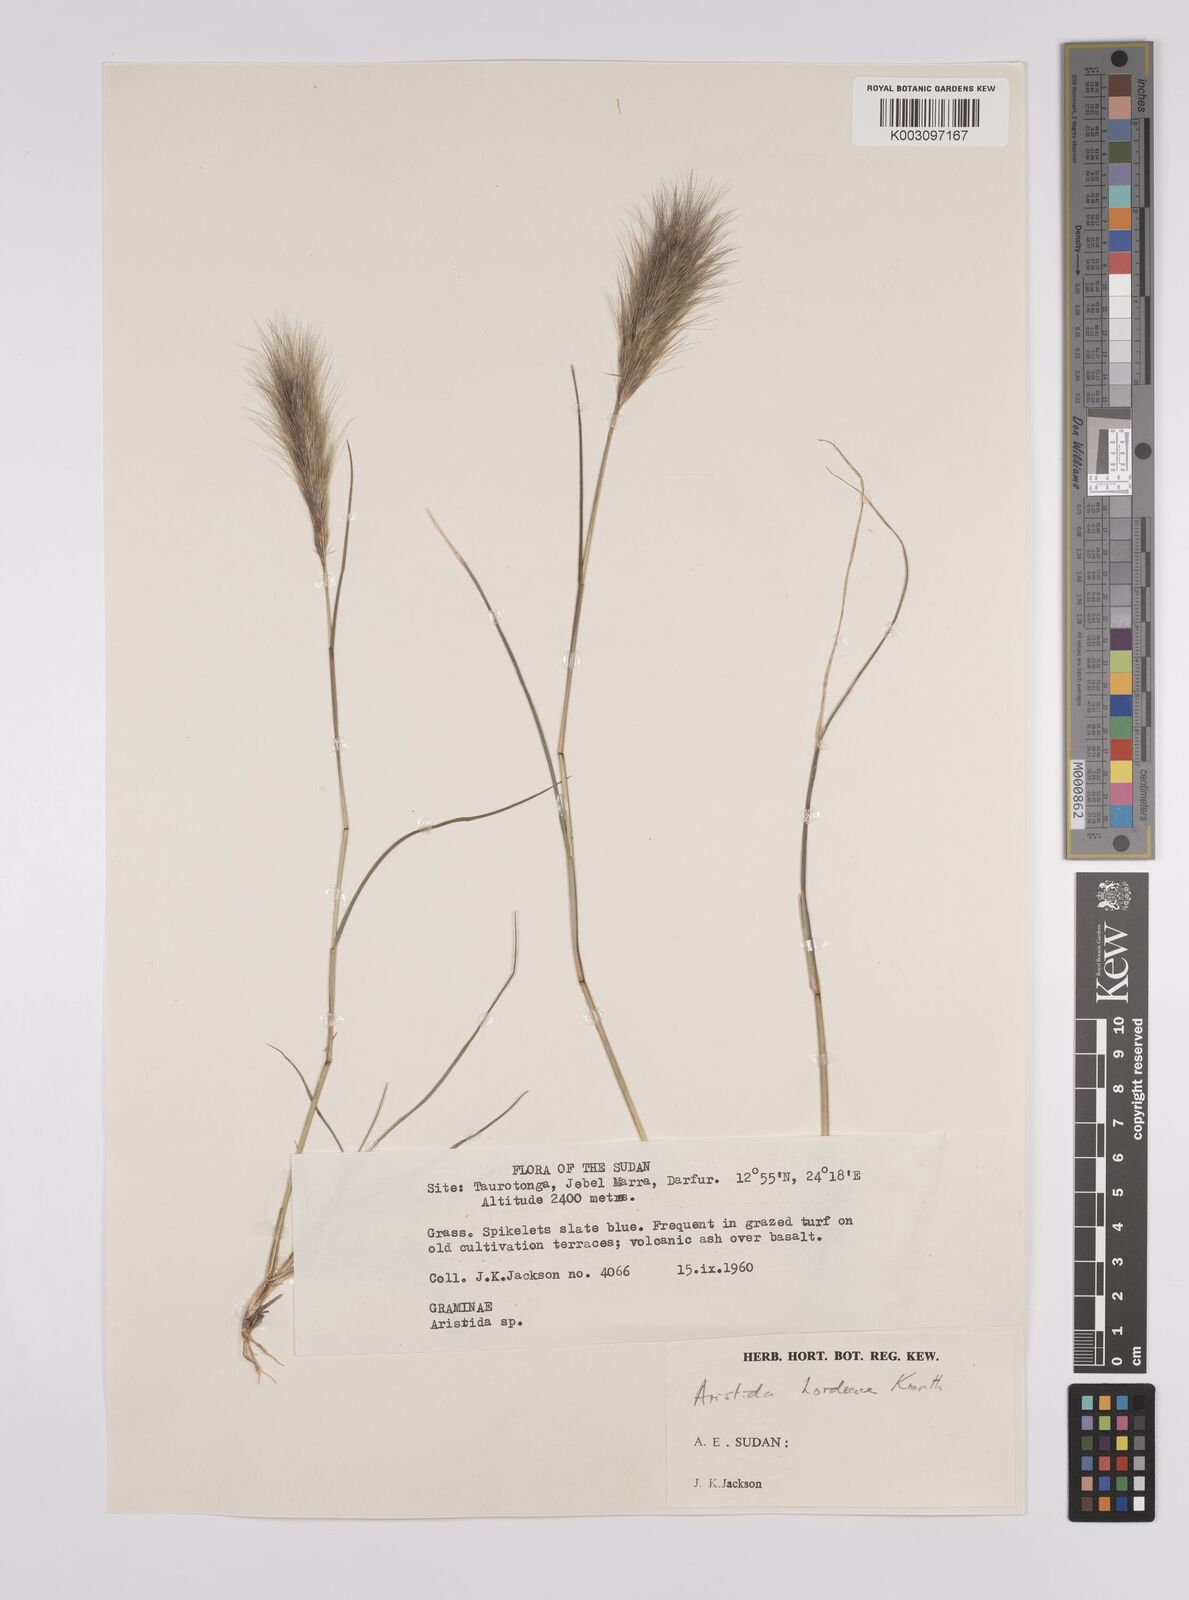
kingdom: Plantae
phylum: Tracheophyta
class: Liliopsida
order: Poales
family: Poaceae
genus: Aristida
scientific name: Aristida congesta
